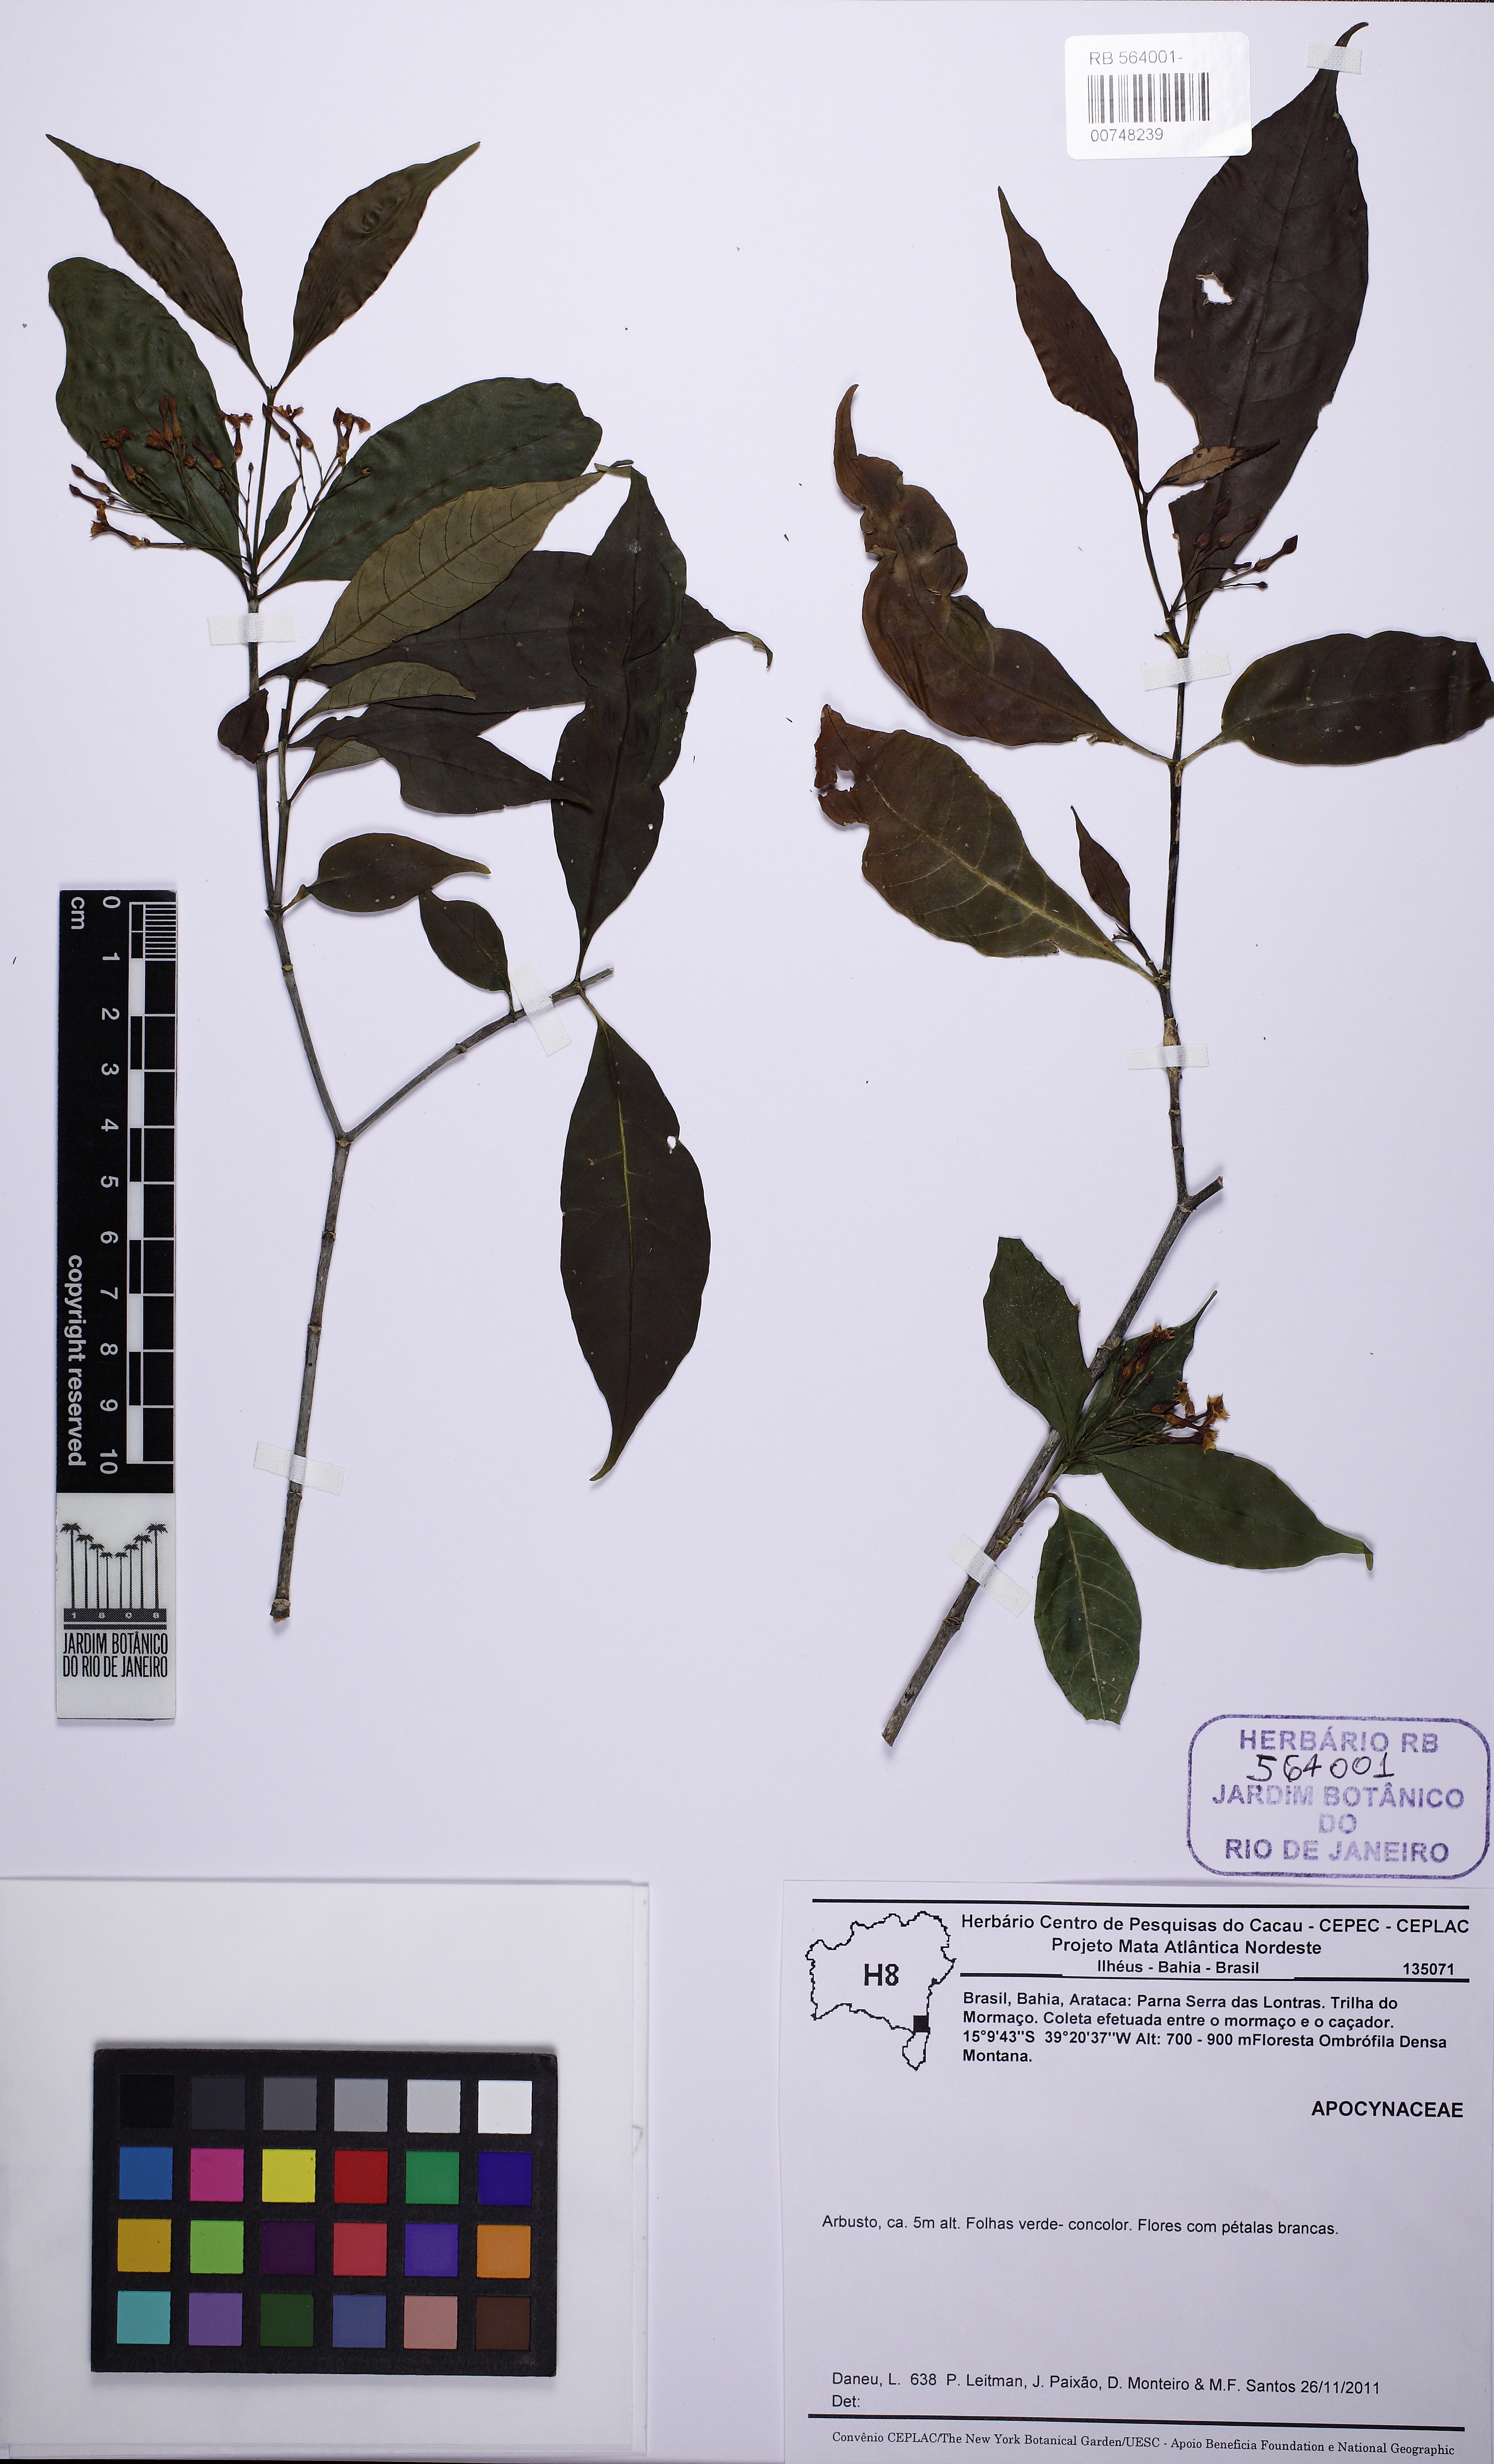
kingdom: Plantae
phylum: Tracheophyta
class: Magnoliopsida
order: Gentianales
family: Apocynaceae
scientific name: Apocynaceae
